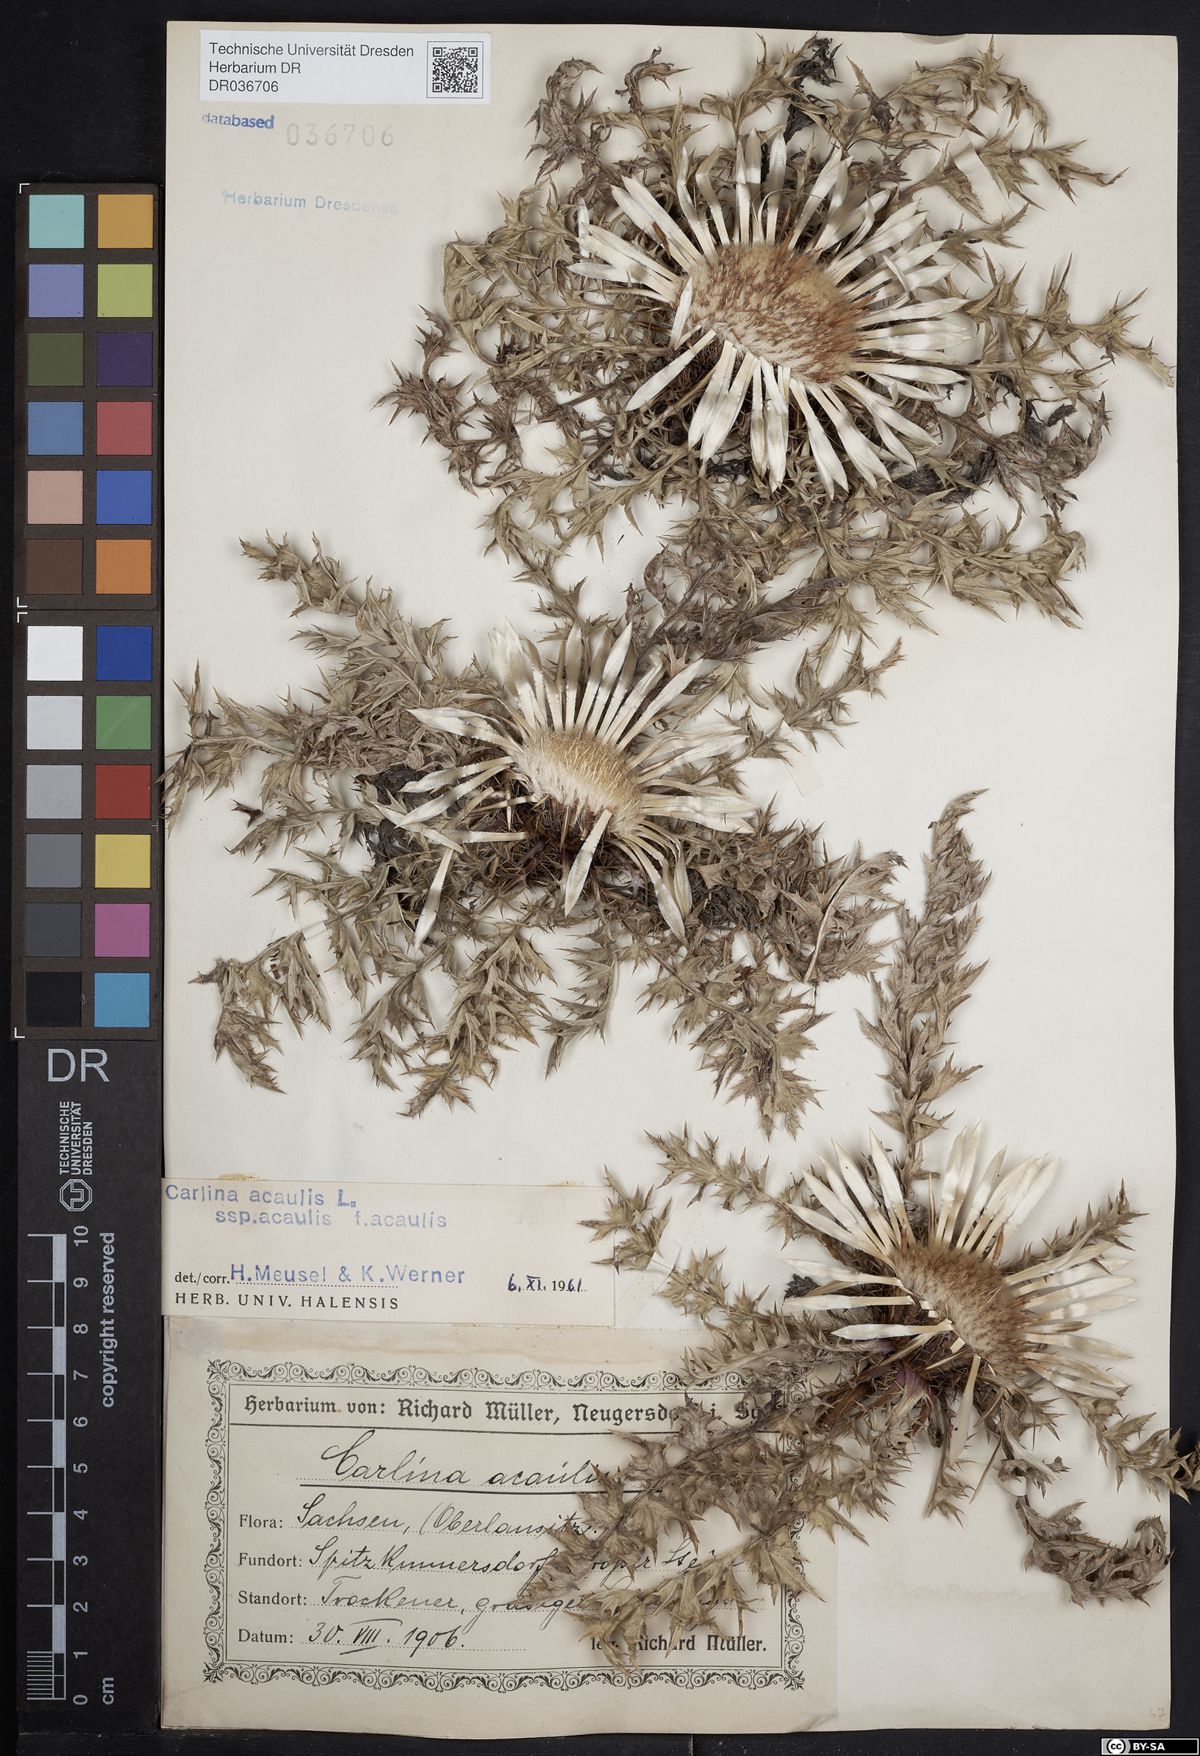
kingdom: Plantae
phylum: Tracheophyta
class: Magnoliopsida
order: Asterales
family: Asteraceae
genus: Carlina
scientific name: Carlina acaulis
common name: Stemless carline thistle
